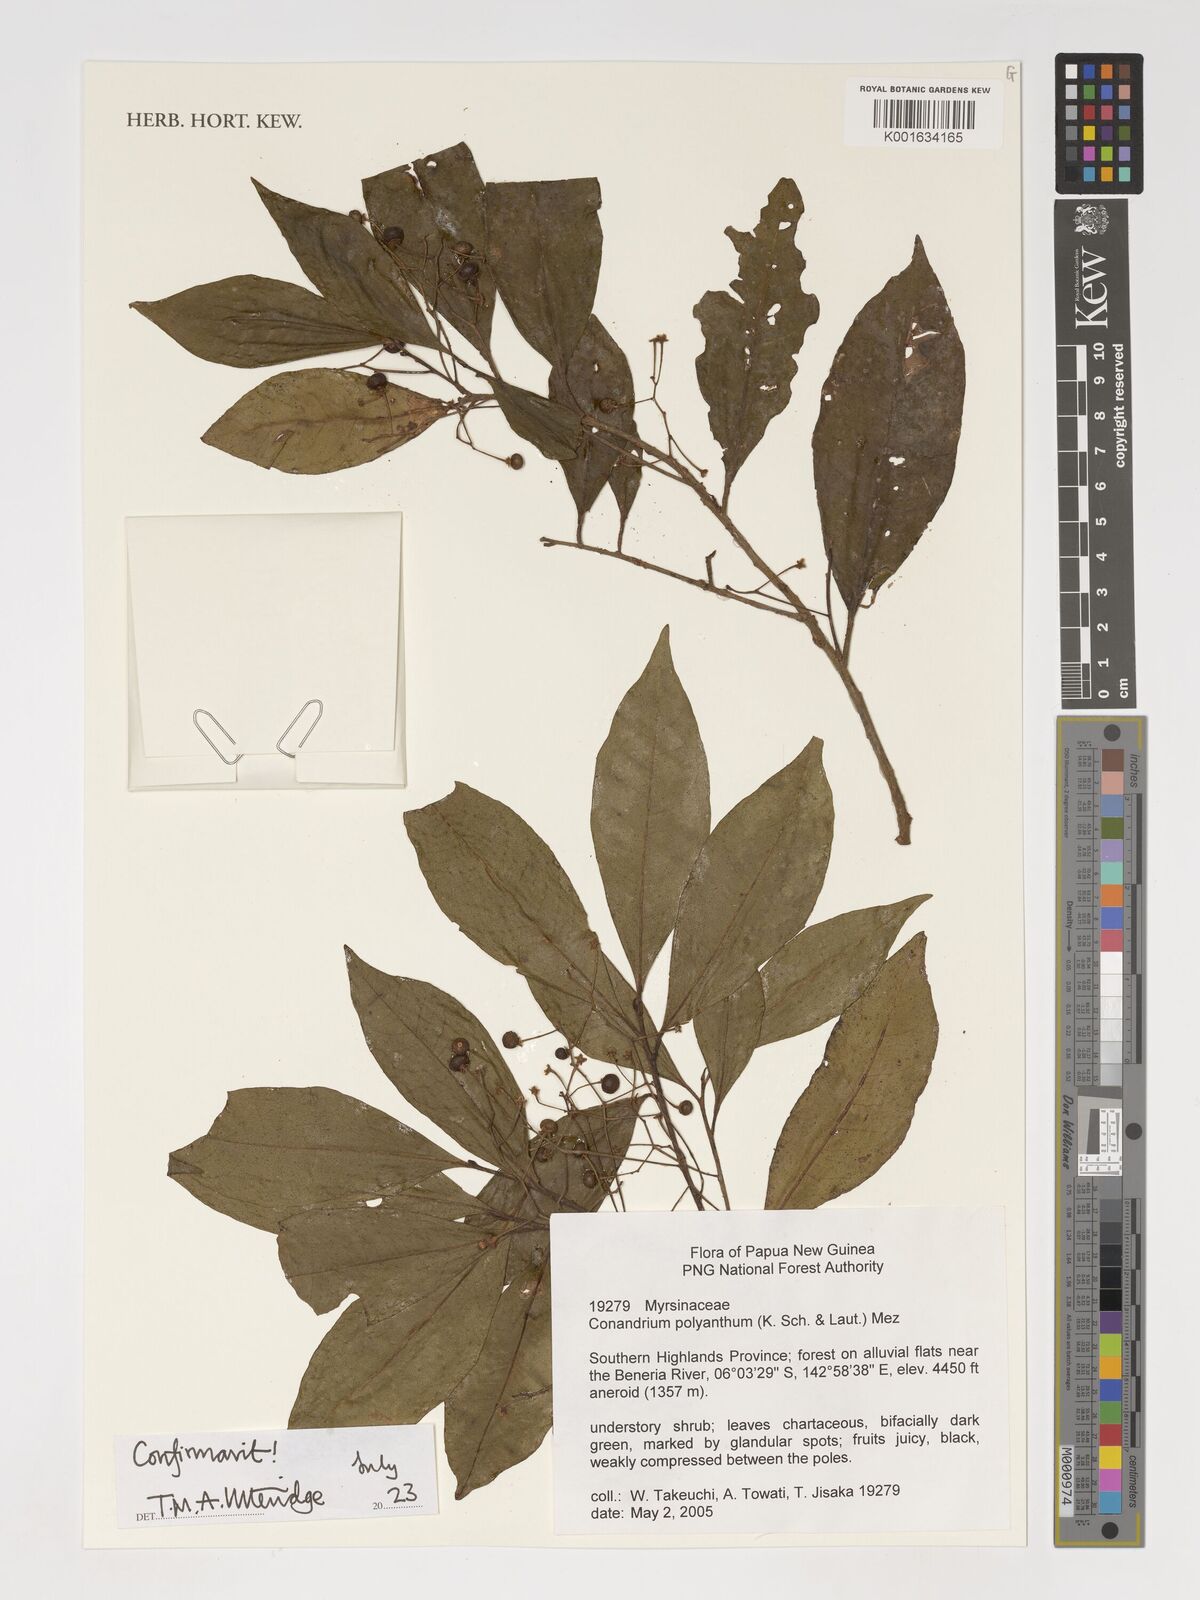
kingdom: Plantae
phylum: Tracheophyta
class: Magnoliopsida
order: Ericales
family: Primulaceae
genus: Conandrium
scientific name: Conandrium polyanthum
